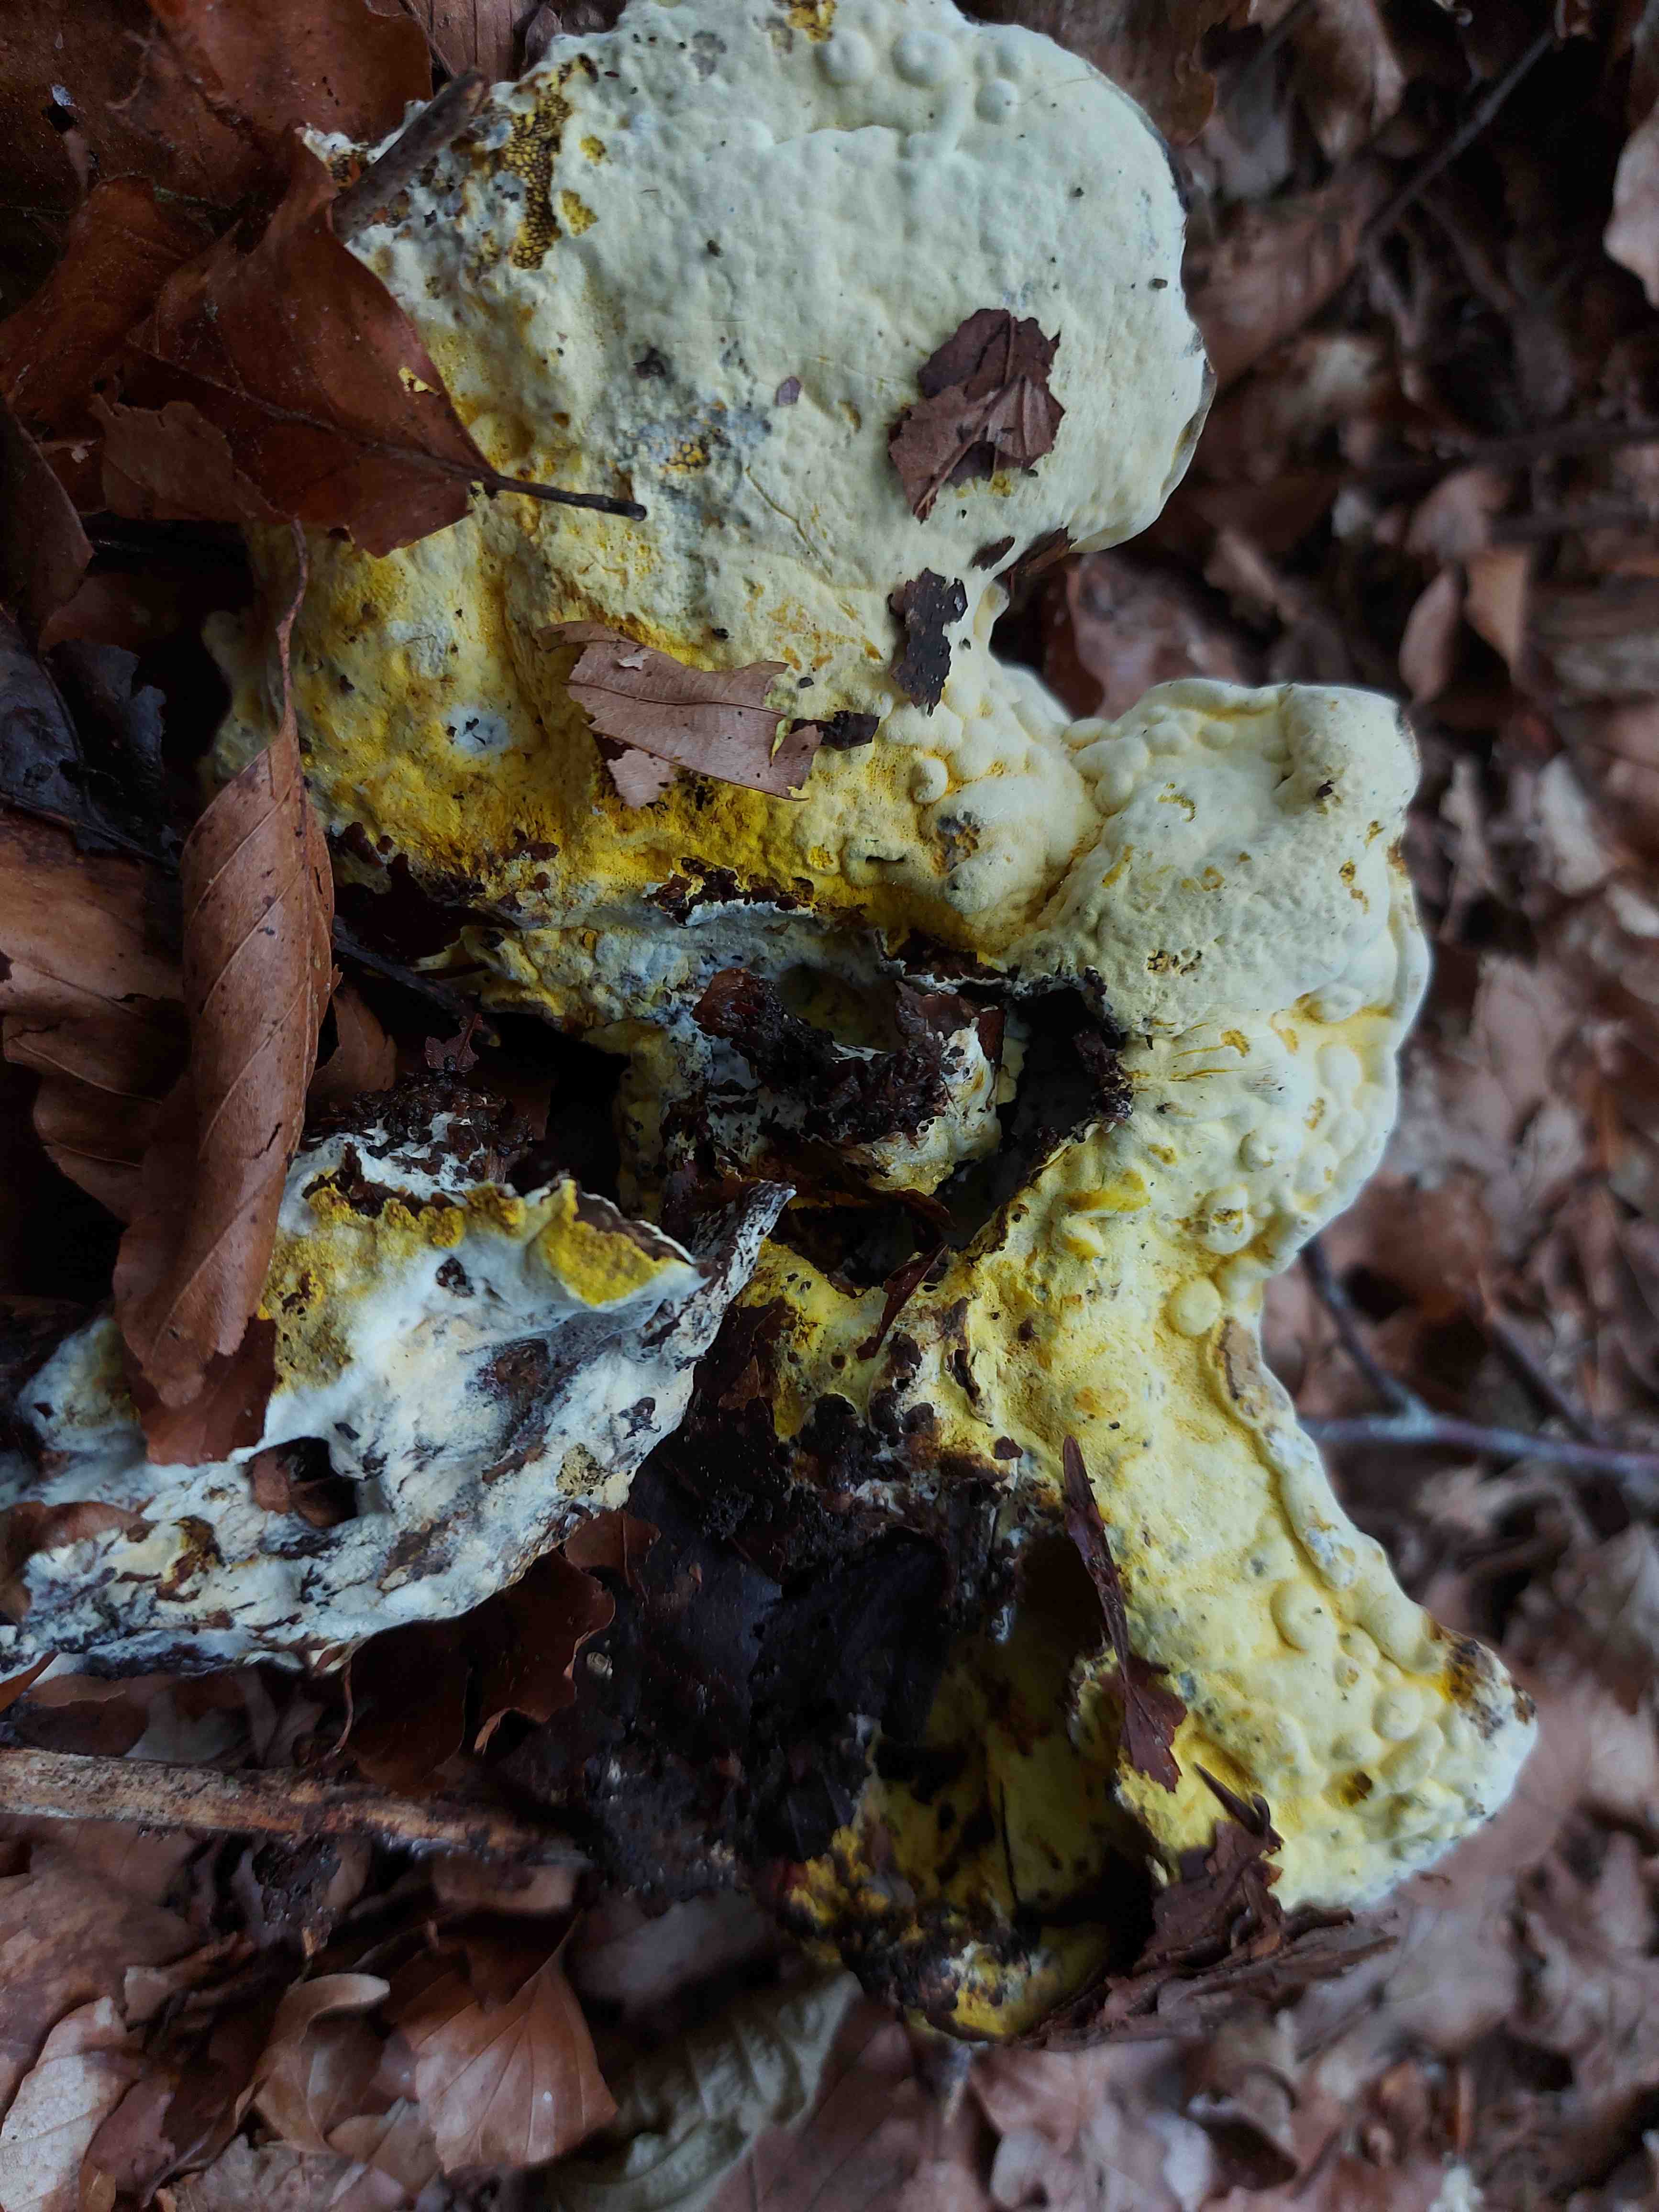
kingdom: Fungi
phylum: Ascomycota
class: Sordariomycetes
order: Hypocreales
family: Hypocreaceae
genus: Hypomyces
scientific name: Hypomyces
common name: snylteskorpe
